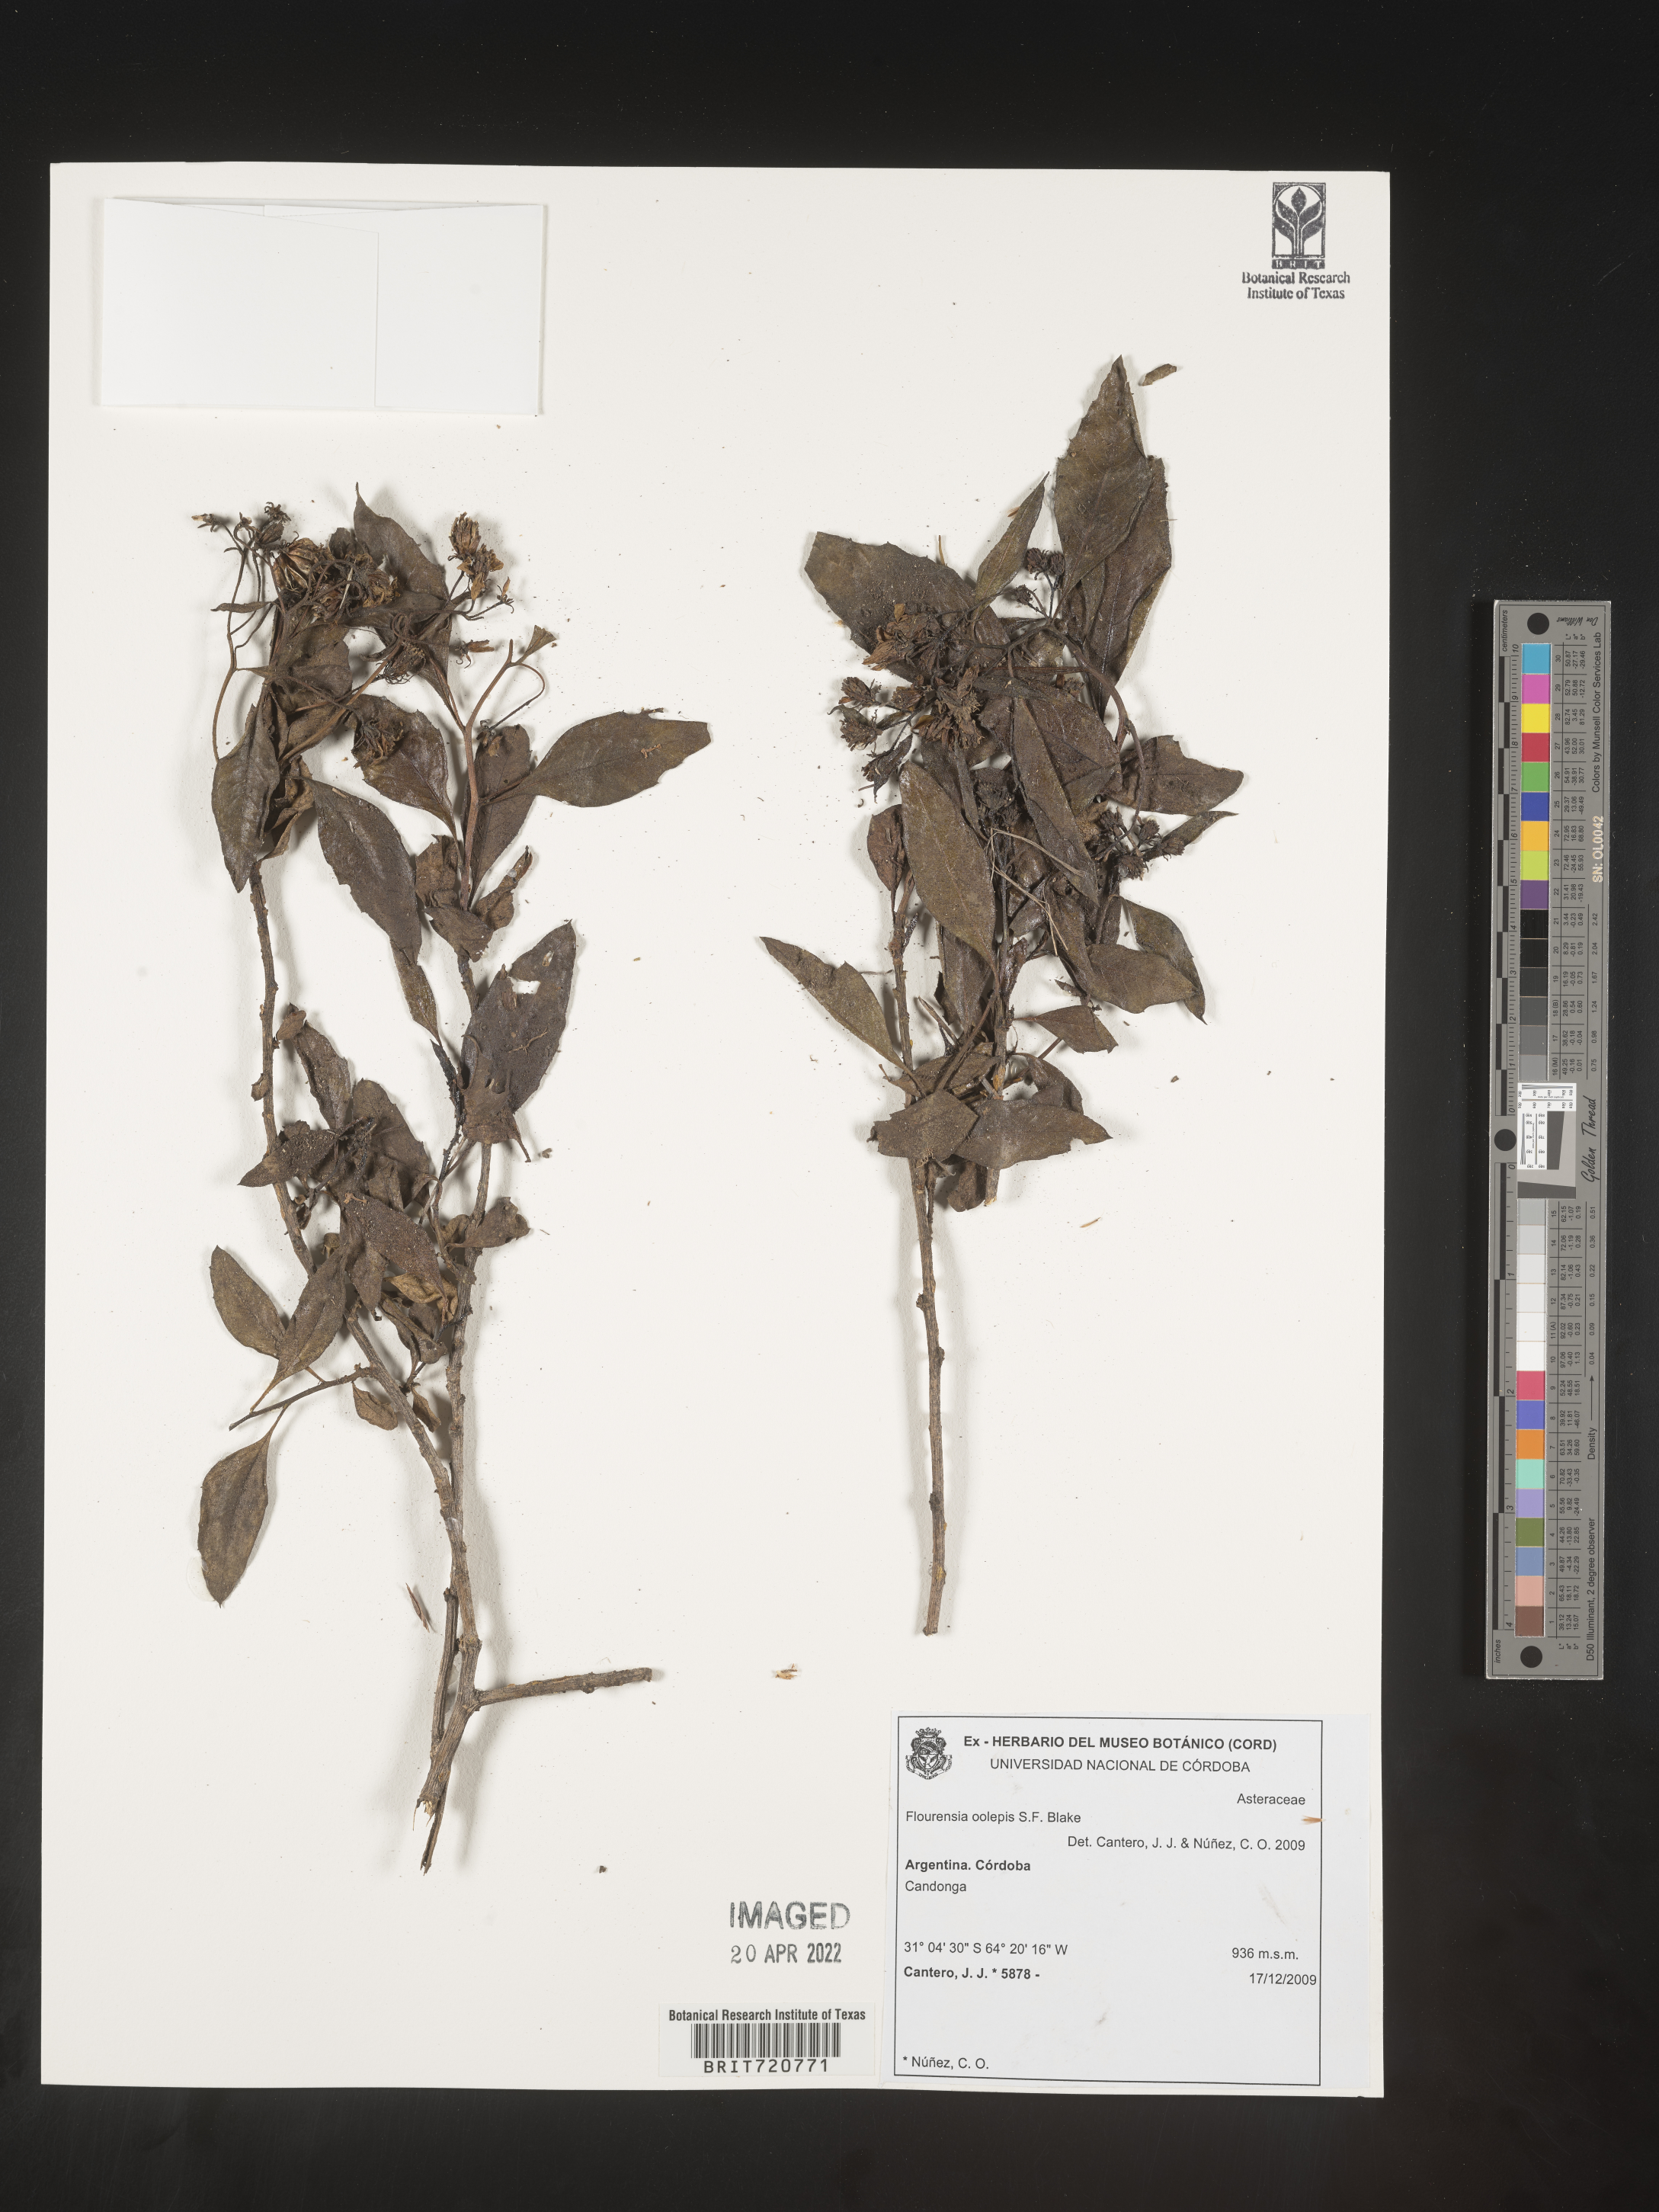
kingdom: Plantae
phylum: Tracheophyta
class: Magnoliopsida
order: Asterales
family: Asteraceae
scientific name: Asteraceae
